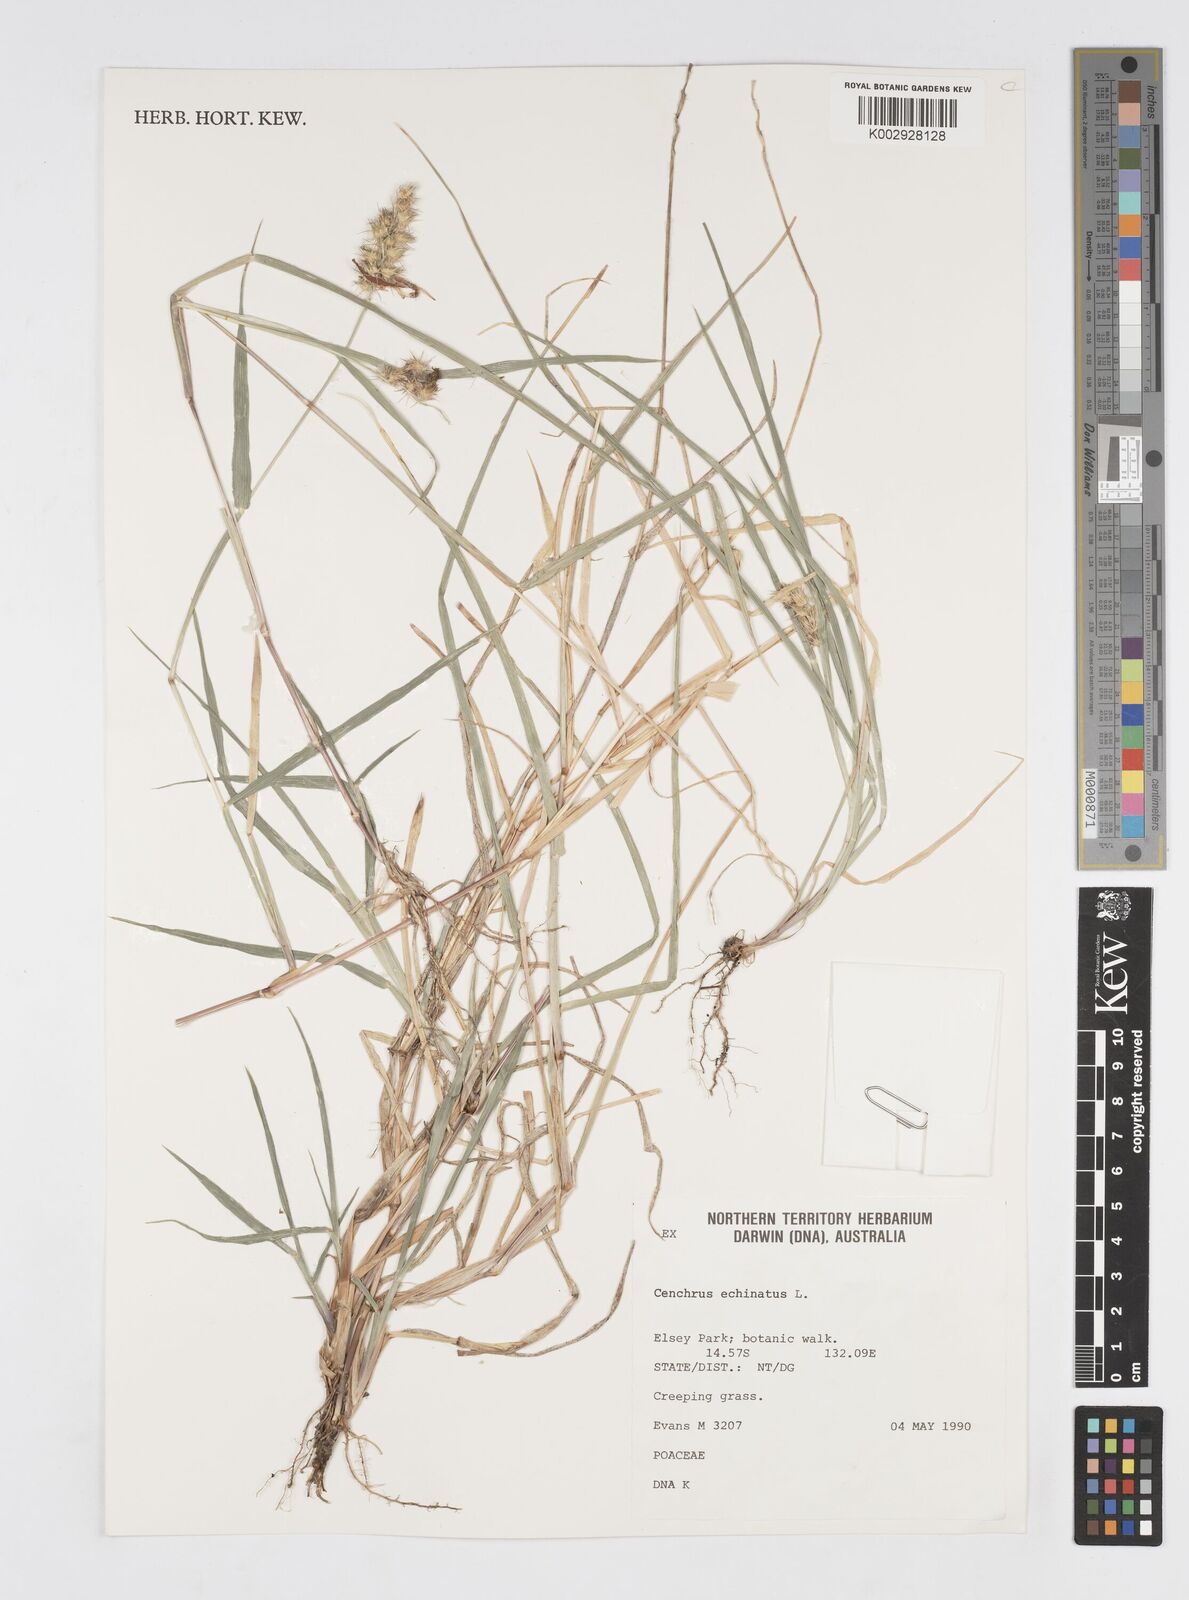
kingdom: Plantae
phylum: Tracheophyta
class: Liliopsida
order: Poales
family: Poaceae
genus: Cenchrus
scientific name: Cenchrus echinatus
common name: Southern sandbur
